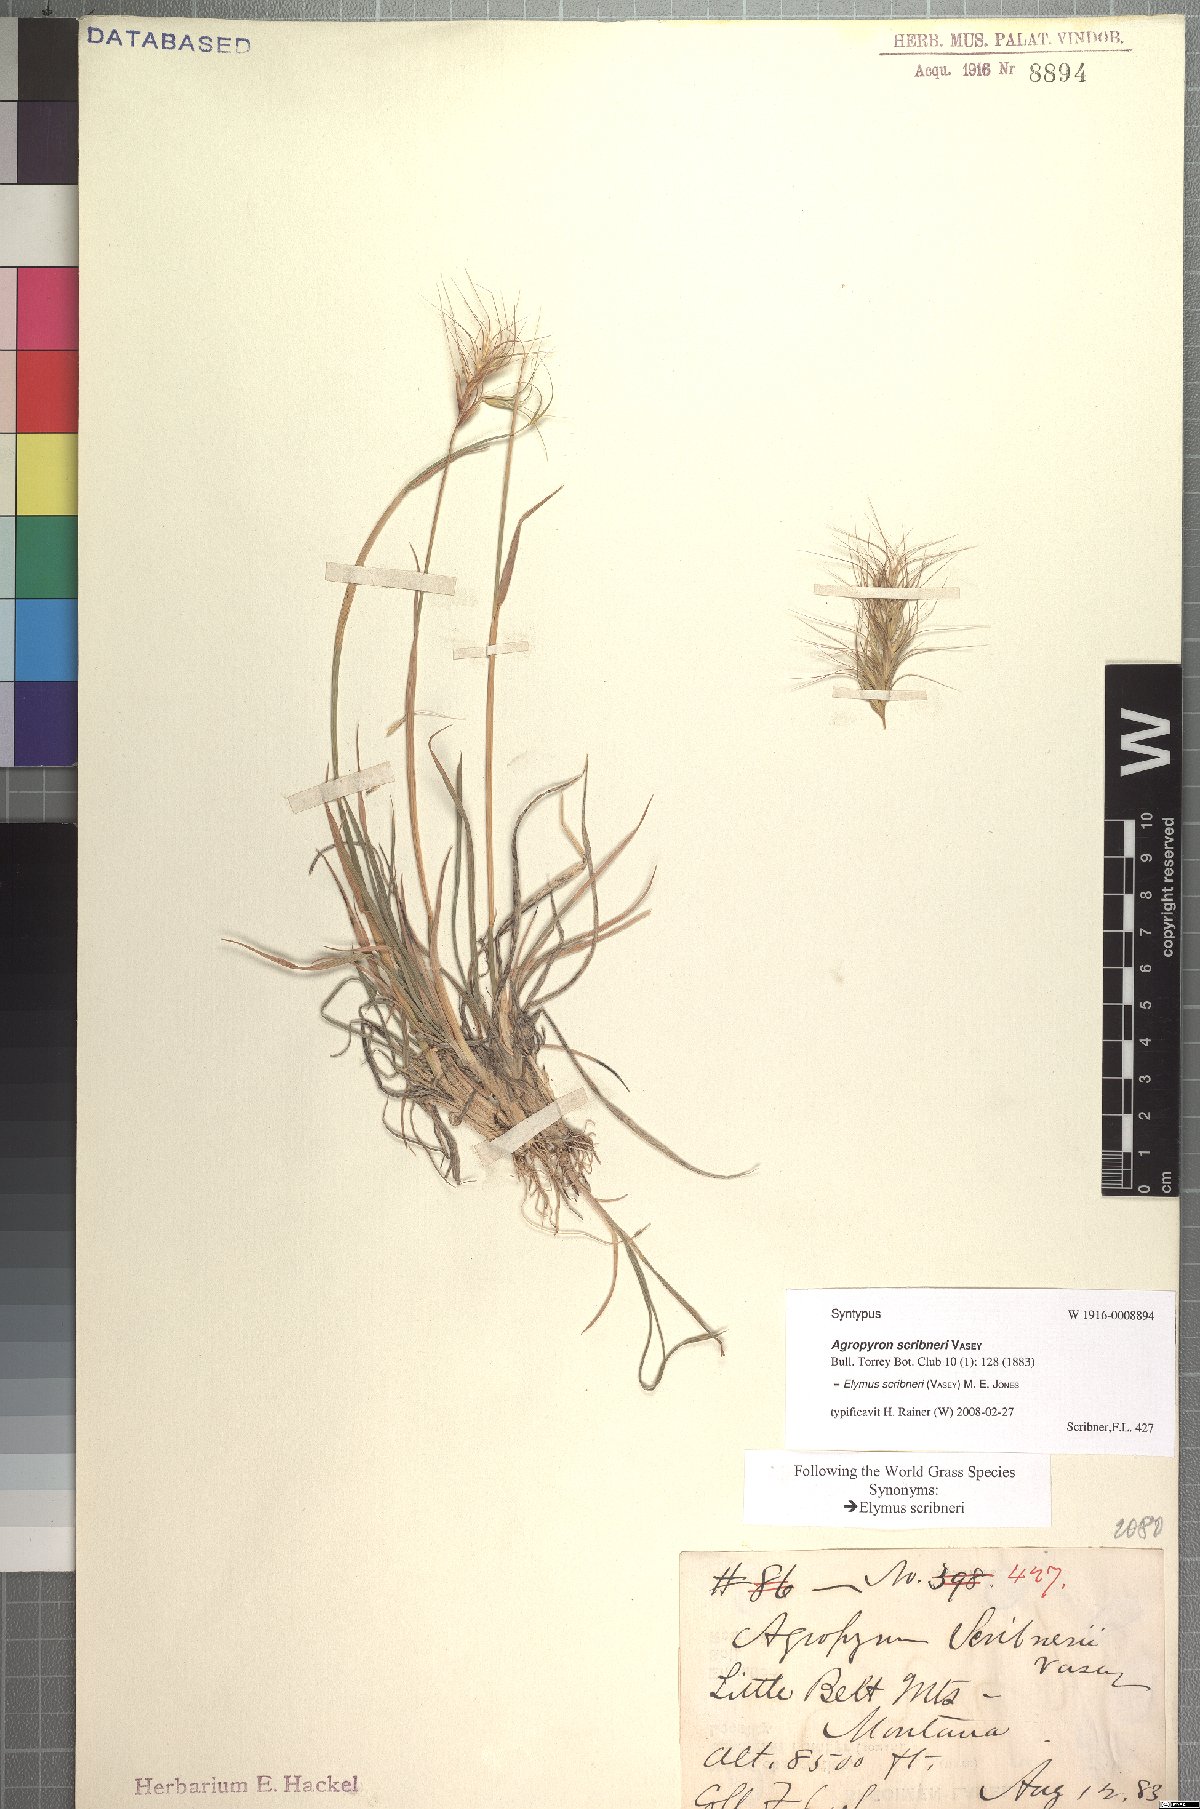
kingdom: Plantae
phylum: Tracheophyta
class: Liliopsida
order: Poales
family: Poaceae
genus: Elymus
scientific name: Elymus scribneri
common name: Scribner's wheatgrass
